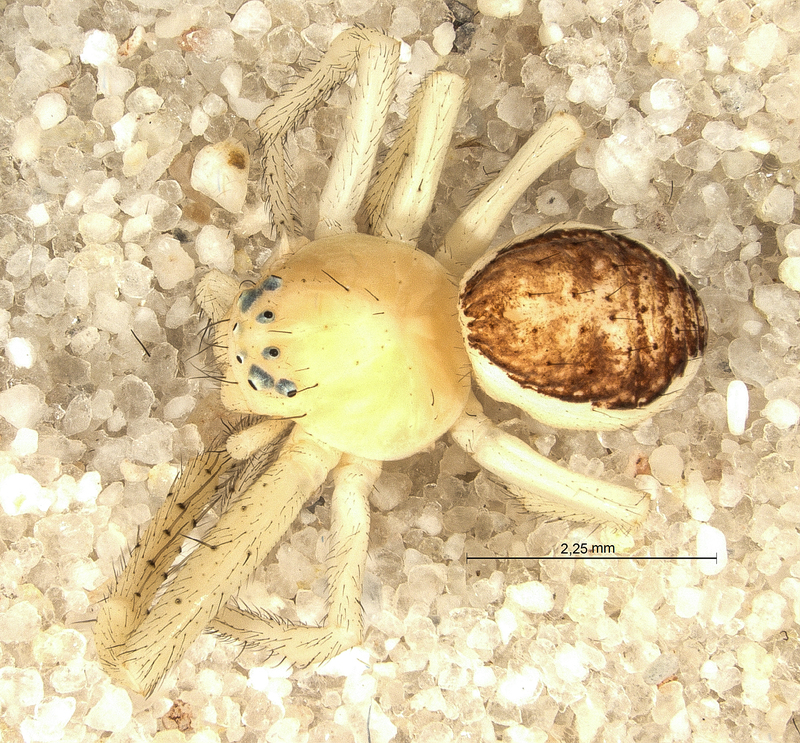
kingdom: Animalia
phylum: Arthropoda
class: Arachnida
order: Araneae
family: Thomisidae
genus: Diaea
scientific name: Diaea dorsata
